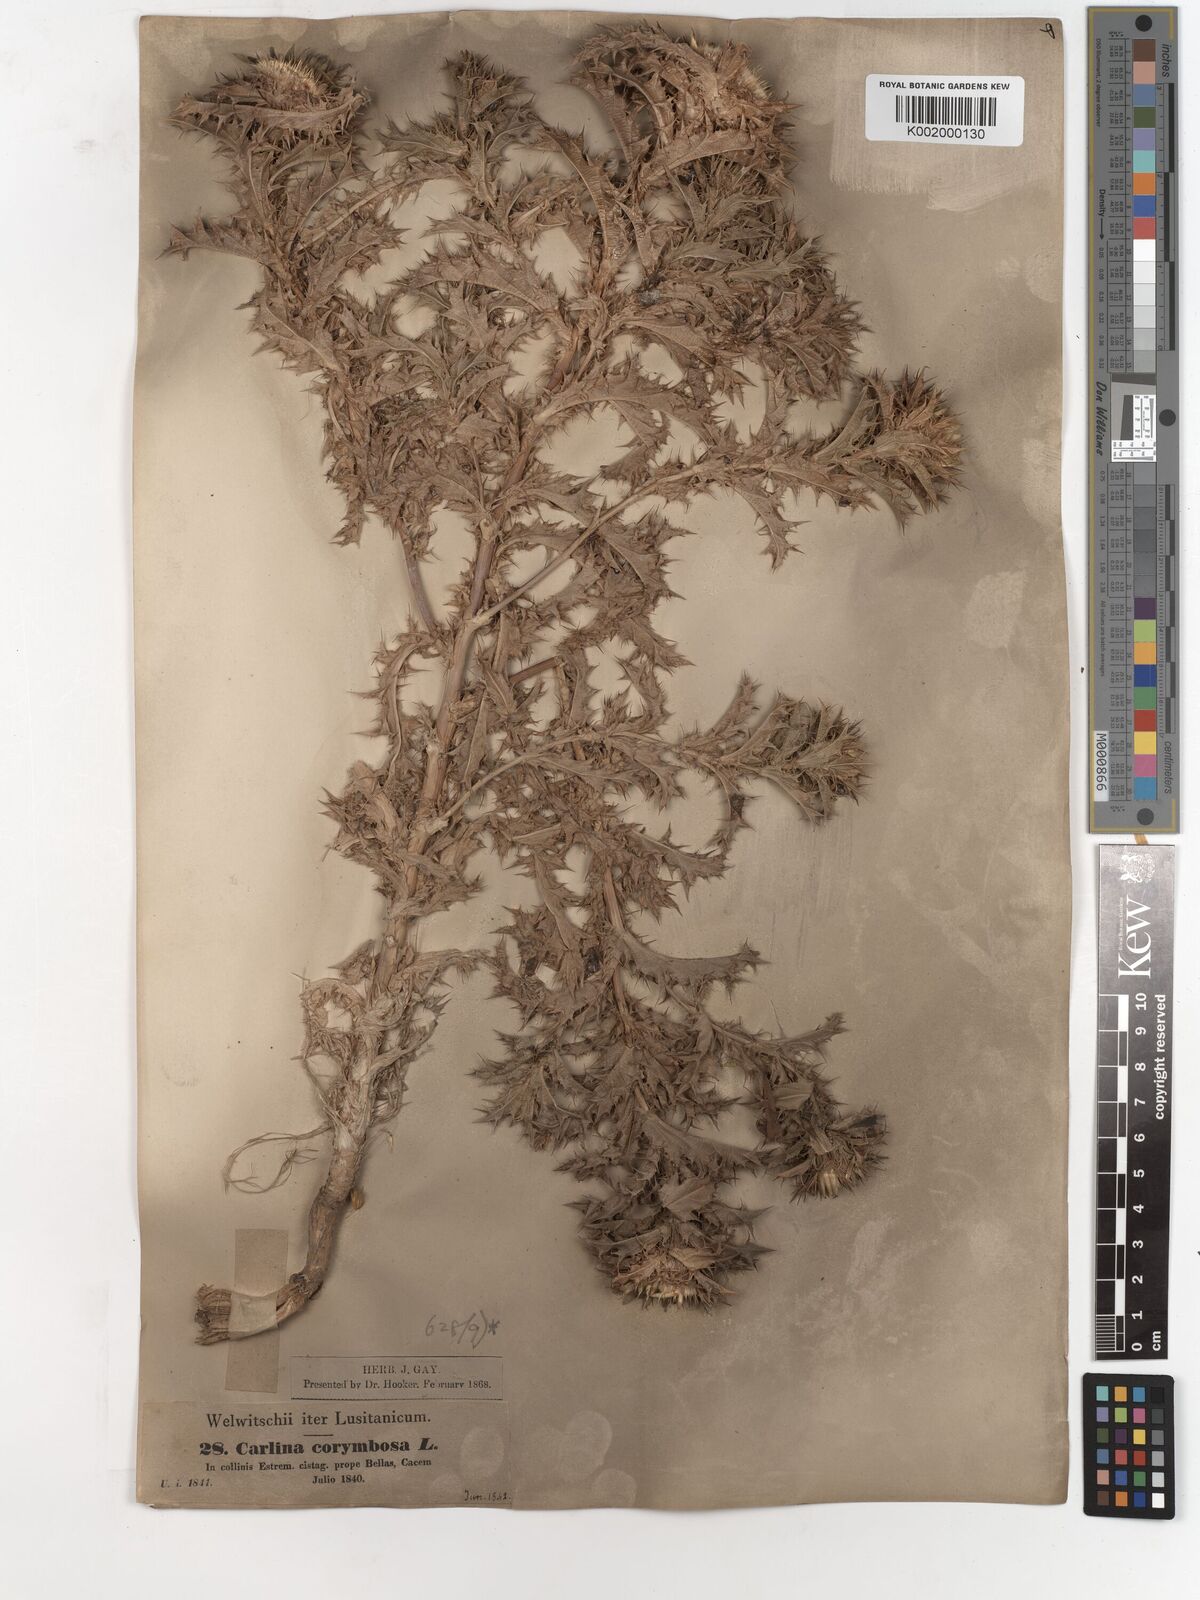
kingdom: Plantae
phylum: Tracheophyta
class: Magnoliopsida
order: Asterales
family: Asteraceae
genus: Carlina
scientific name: Carlina corymbosa
